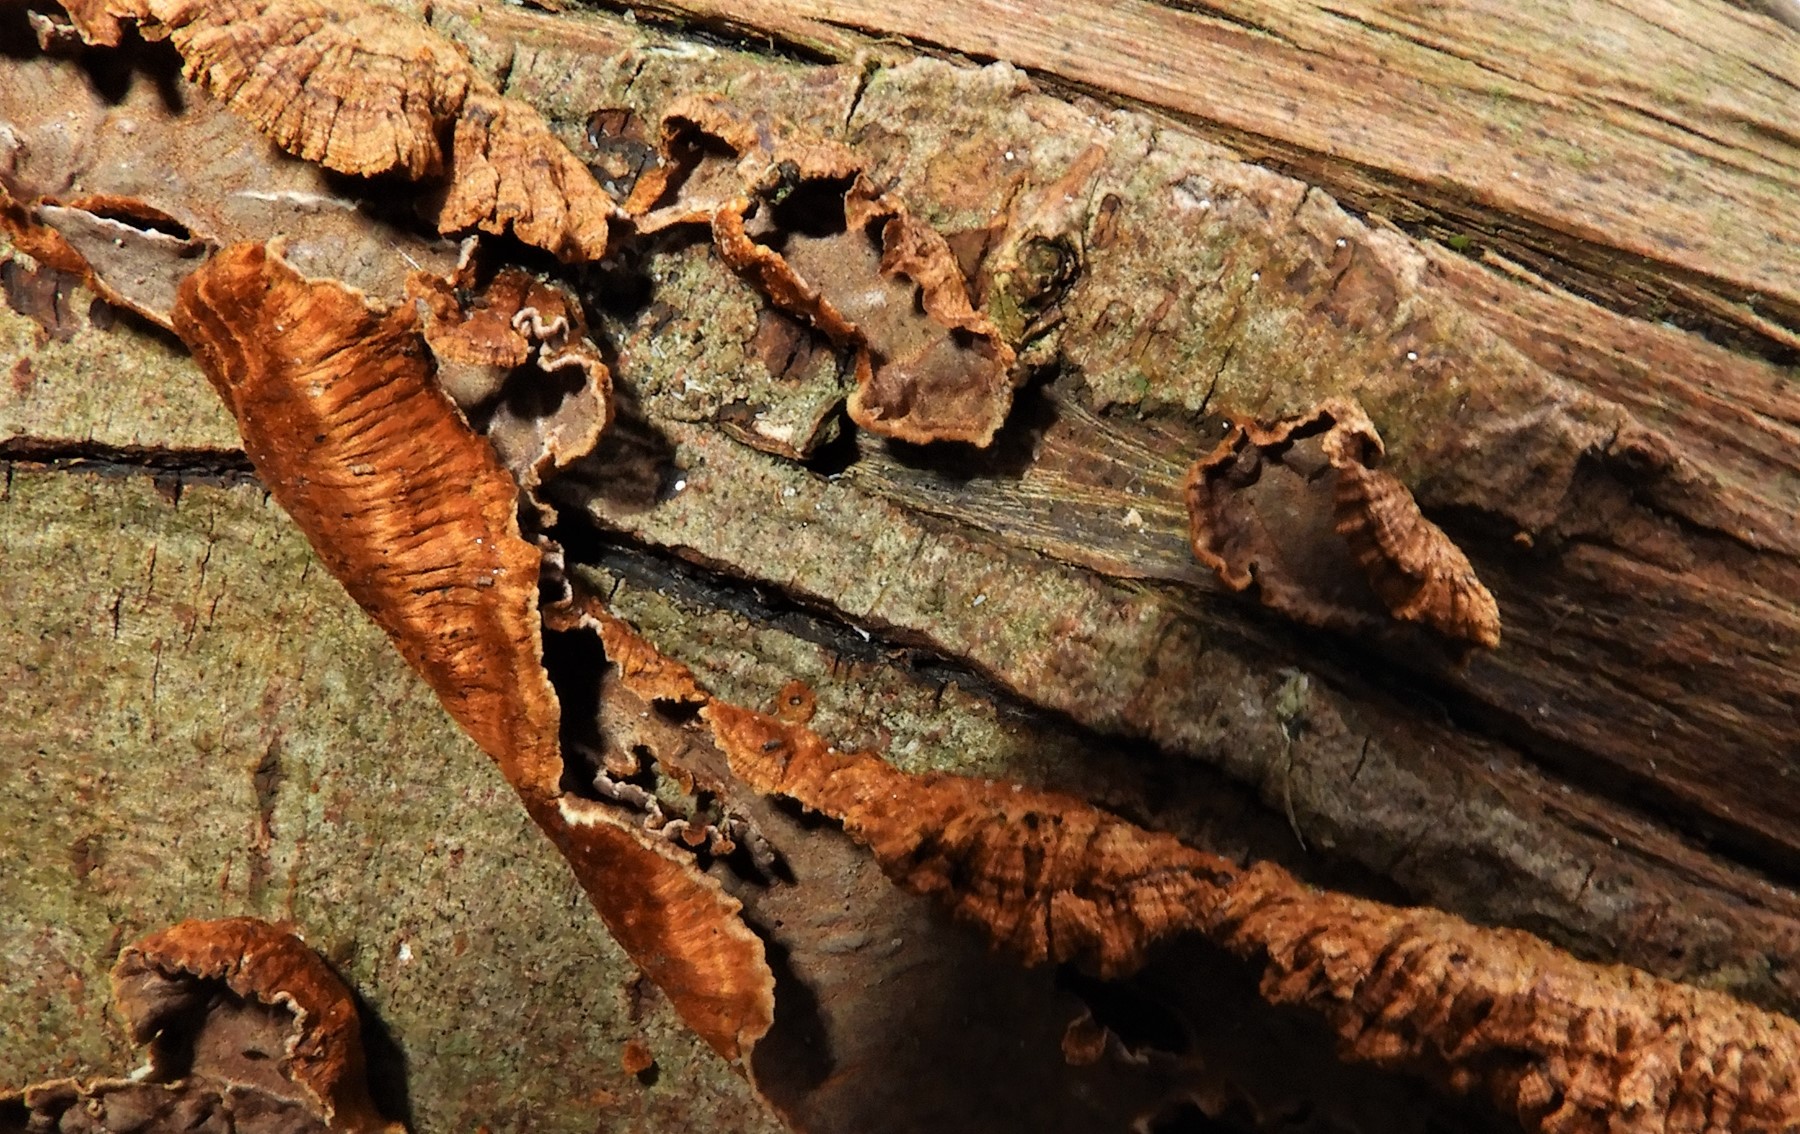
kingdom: Fungi
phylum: Basidiomycota
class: Agaricomycetes
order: Hymenochaetales
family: Hymenochaetaceae
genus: Hydnoporia
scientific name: Hydnoporia tabacina
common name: tobaksbrun ruslædersvamp
